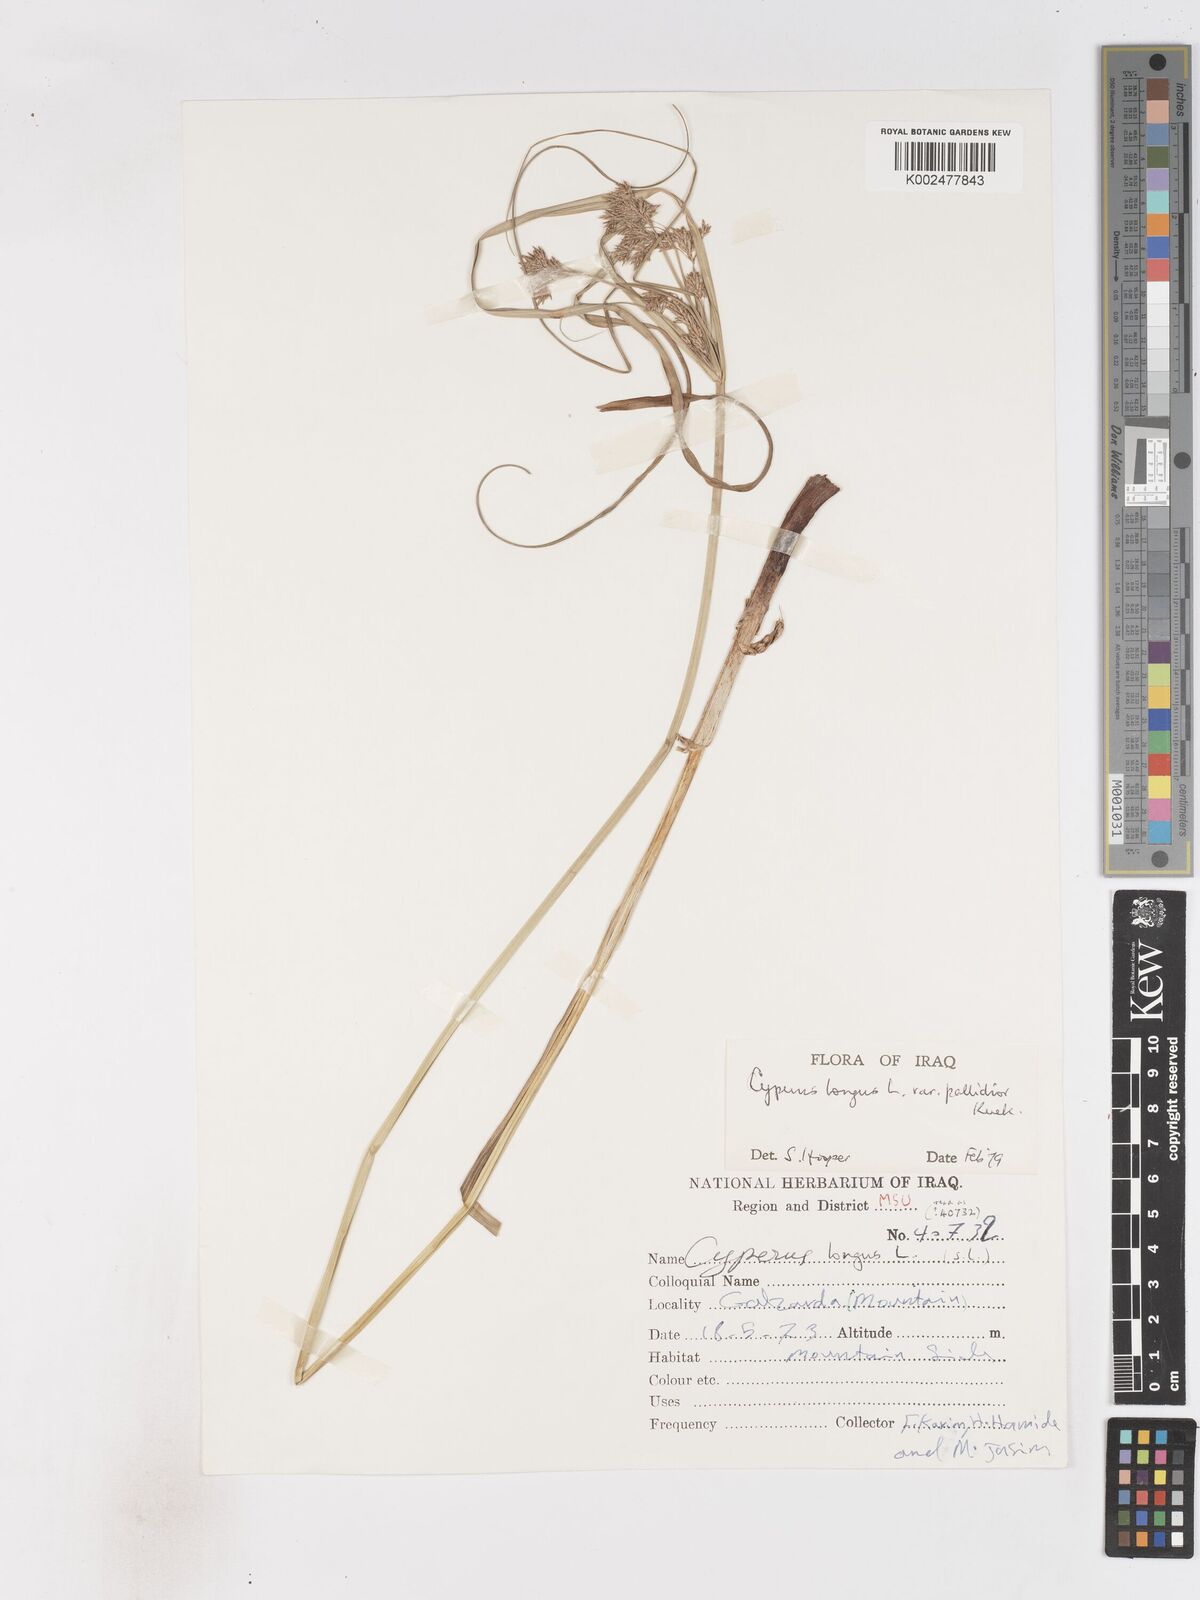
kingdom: Plantae
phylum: Tracheophyta
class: Liliopsida
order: Poales
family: Cyperaceae
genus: Cyperus
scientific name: Cyperus longus
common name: Galingale
